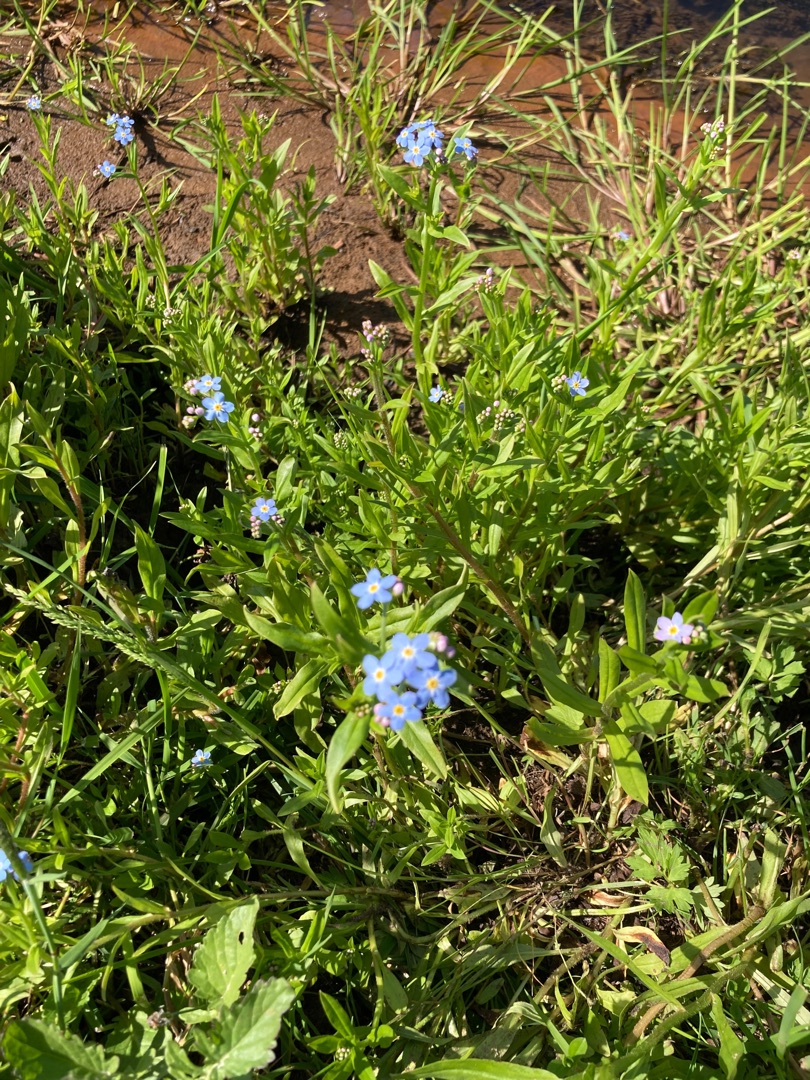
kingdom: Plantae
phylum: Tracheophyta
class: Magnoliopsida
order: Boraginales
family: Boraginaceae
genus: Myosotis
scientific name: Myosotis scorpioides
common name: Eng-forglemmigej
